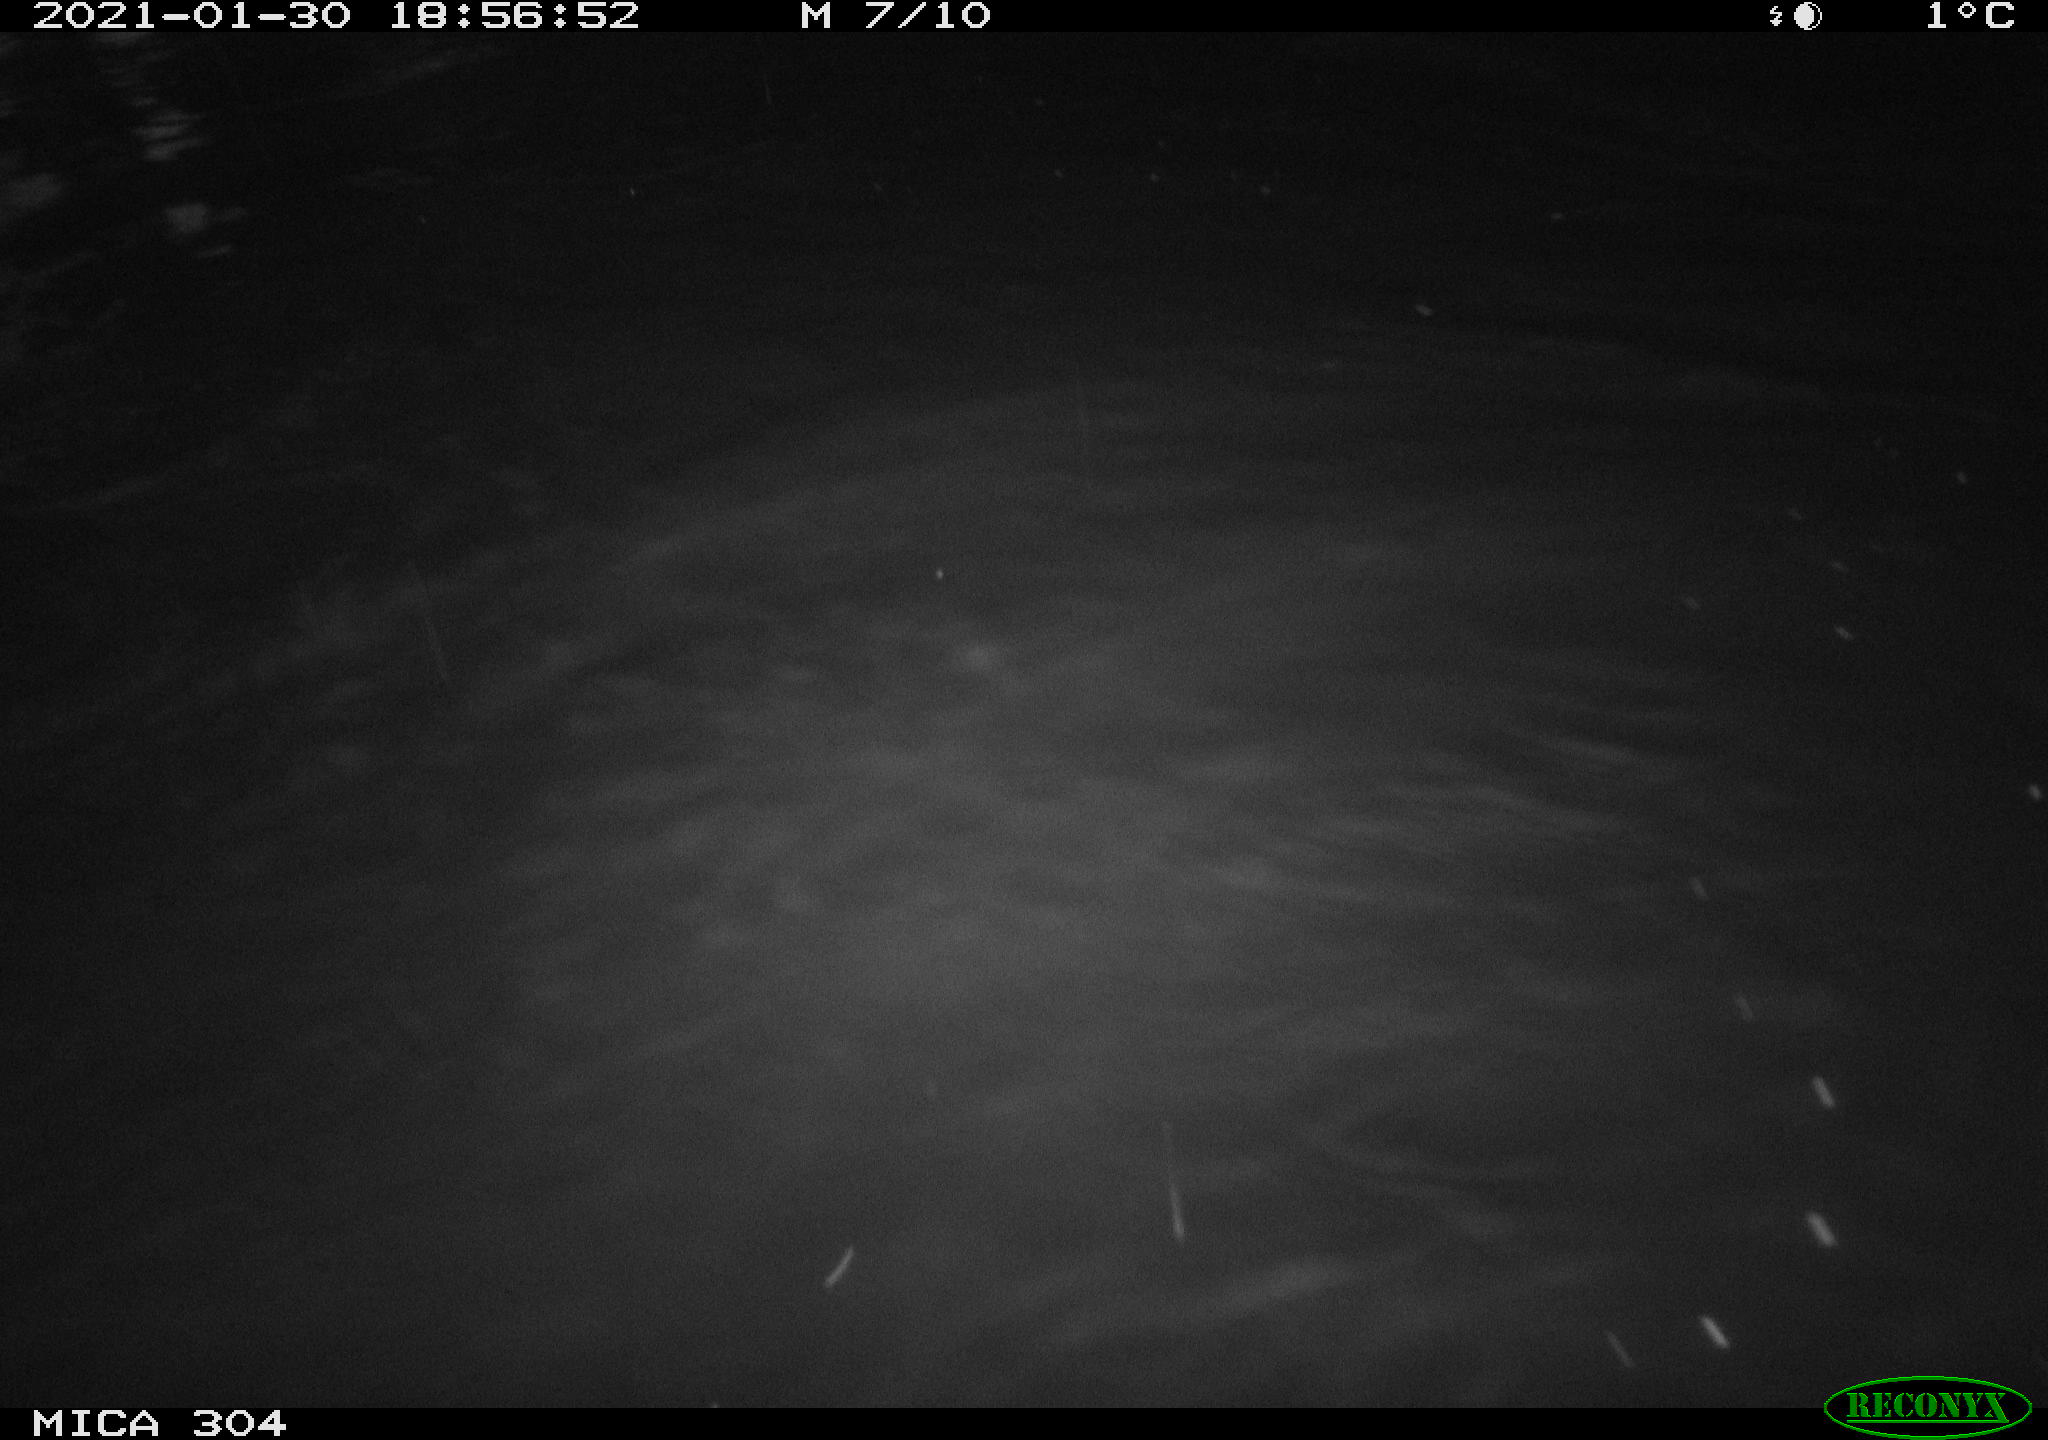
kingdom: Animalia
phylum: Chordata
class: Mammalia
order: Rodentia
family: Cricetidae
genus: Ondatra
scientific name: Ondatra zibethicus
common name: Muskrat
